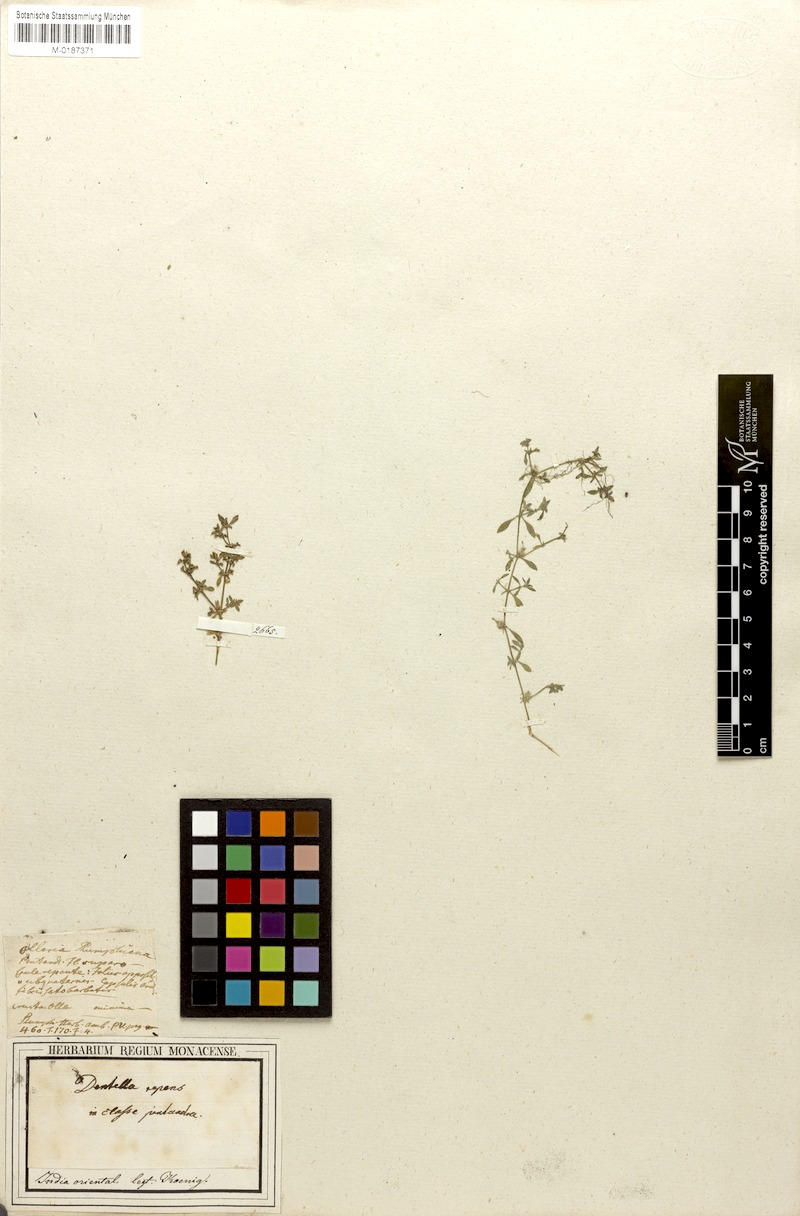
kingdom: Plantae
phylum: Tracheophyta
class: Magnoliopsida
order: Gentianales
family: Rubiaceae
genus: Dentella
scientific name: Dentella repens
